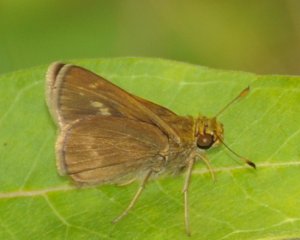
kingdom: Animalia
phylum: Arthropoda
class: Insecta
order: Lepidoptera
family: Hesperiidae
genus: Polites
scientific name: Polites egeremet
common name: Northern Broken-Dash
